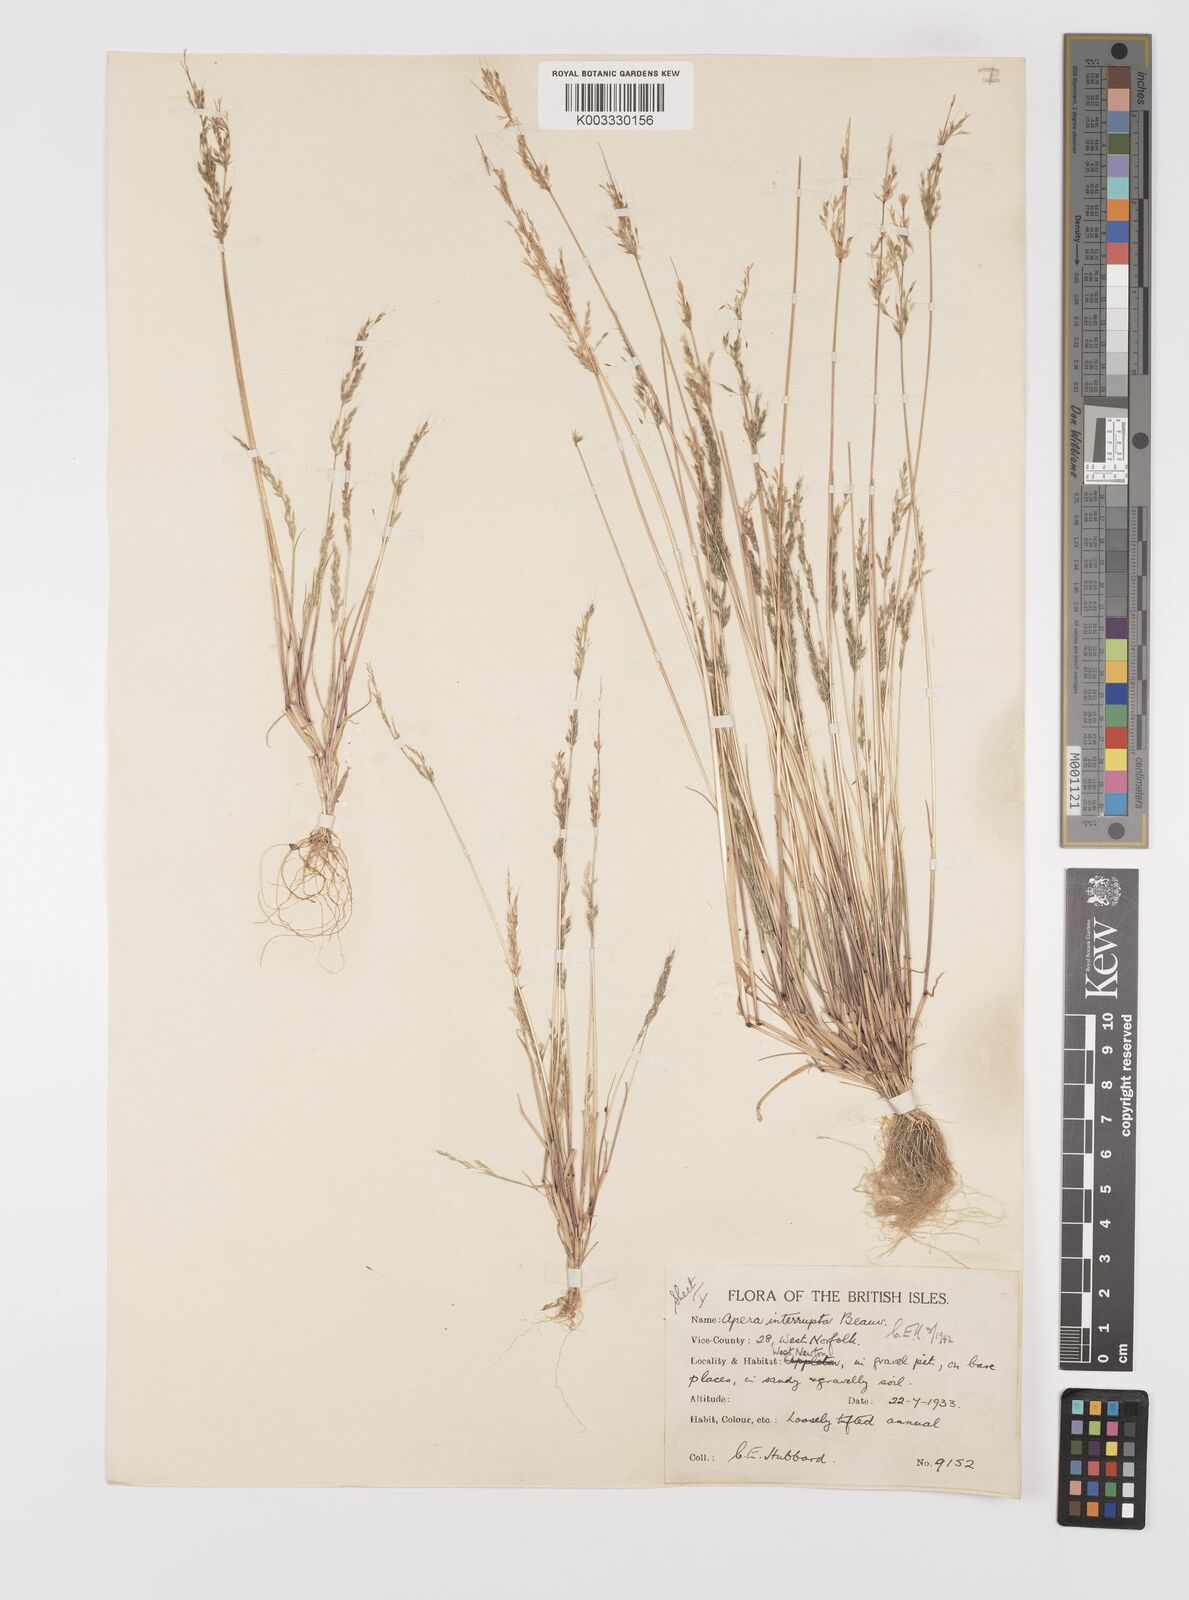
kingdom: Plantae
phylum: Tracheophyta
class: Liliopsida
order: Poales
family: Poaceae
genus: Apera
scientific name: Apera interrupta
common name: Dense silky-bent
